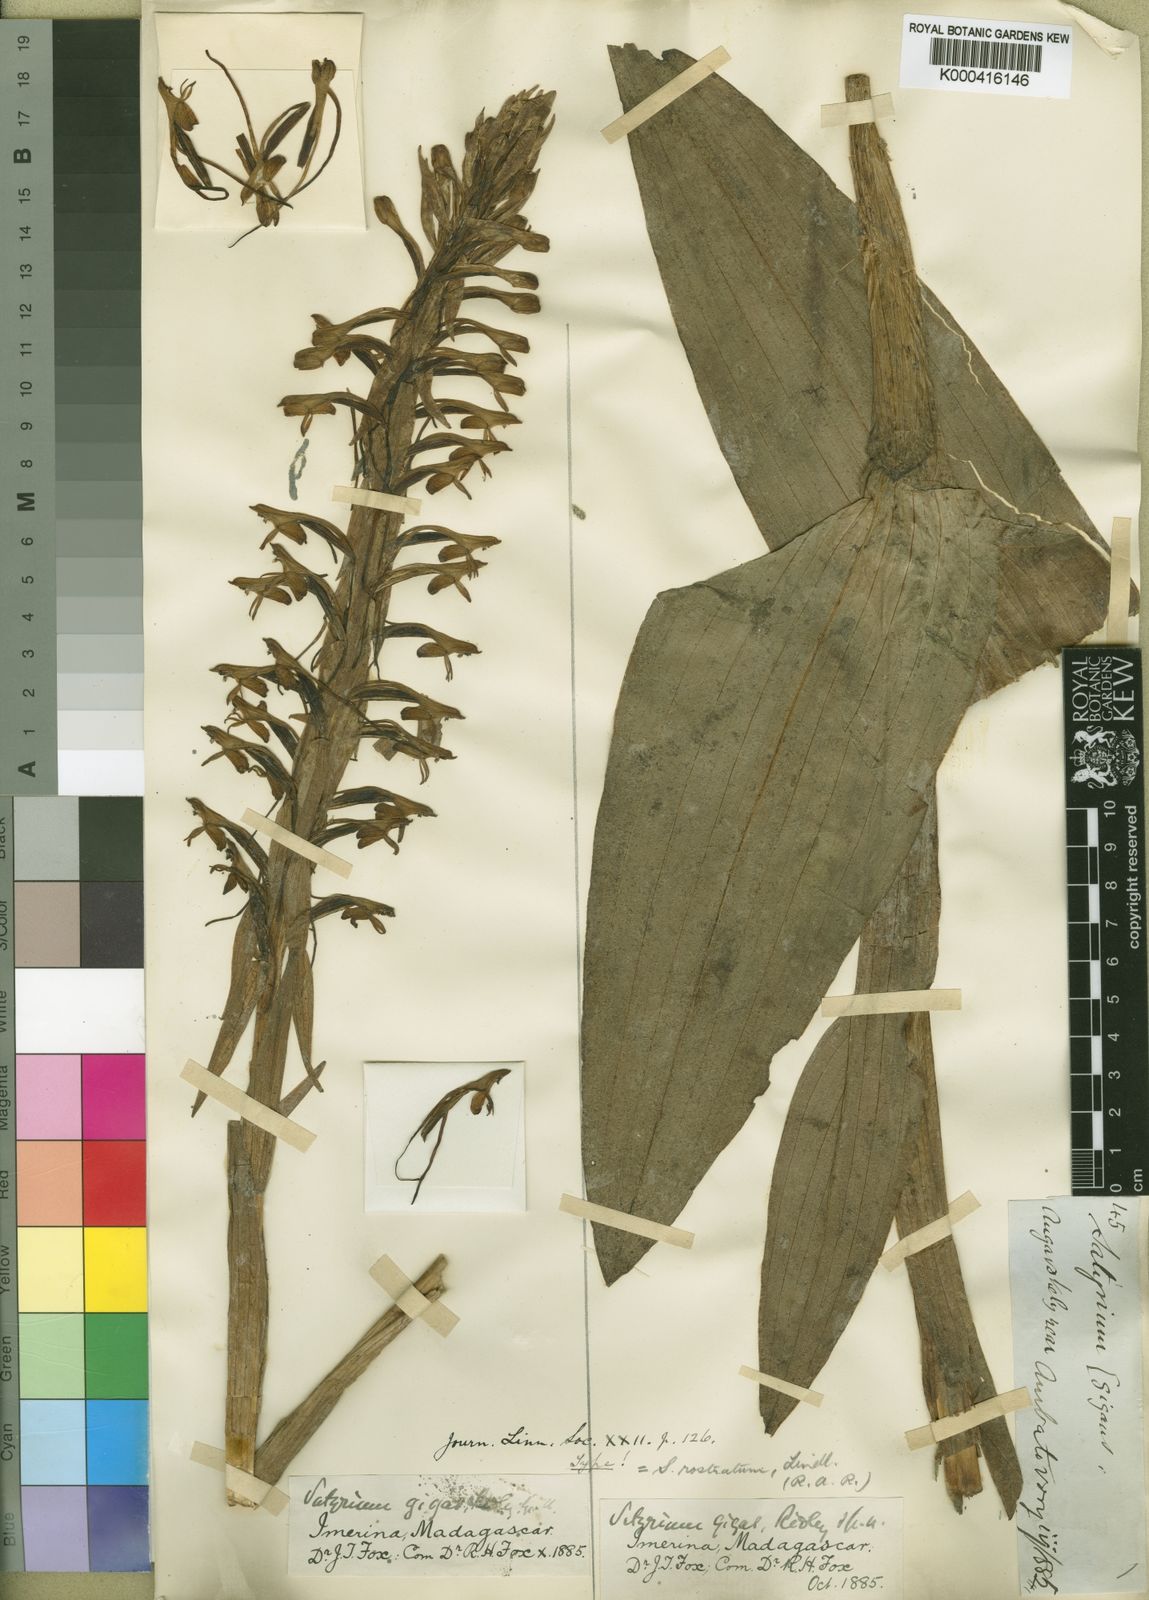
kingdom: Plantae
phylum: Tracheophyta
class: Liliopsida
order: Asparagales
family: Orchidaceae
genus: Satyrium
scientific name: Satyrium rostratum
